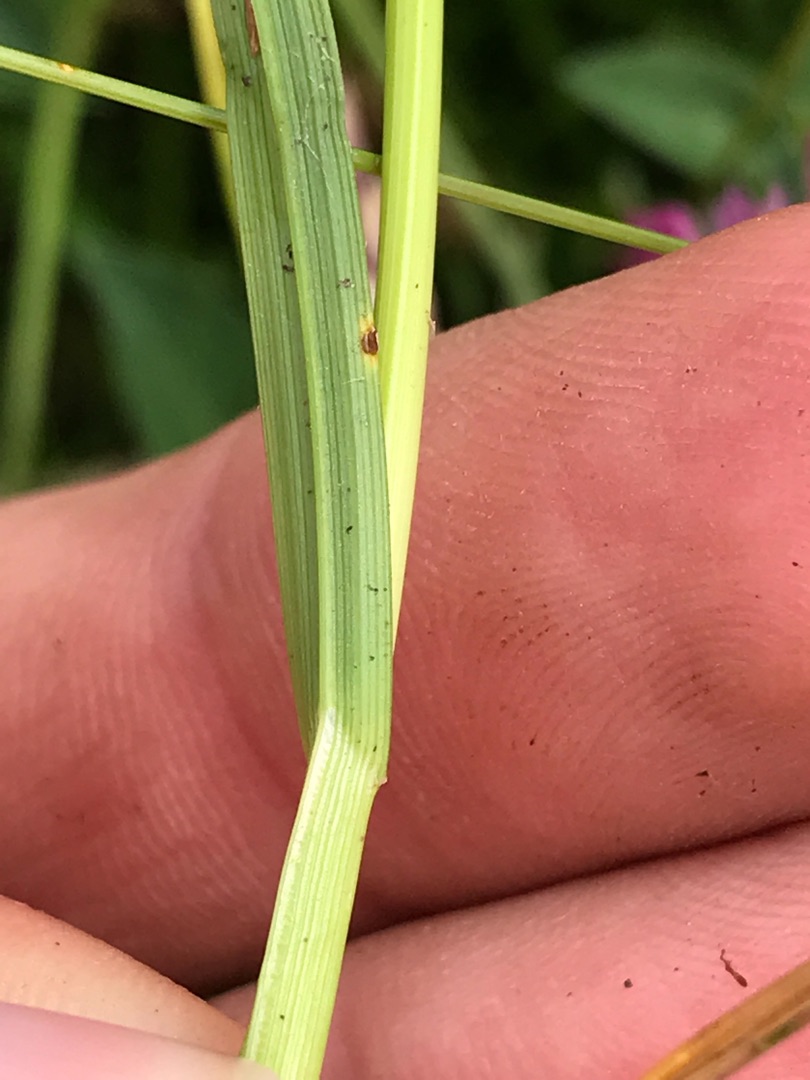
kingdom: Plantae
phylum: Tracheophyta
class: Liliopsida
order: Poales
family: Cyperaceae
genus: Carex
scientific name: Carex leporina
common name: Hare-star
